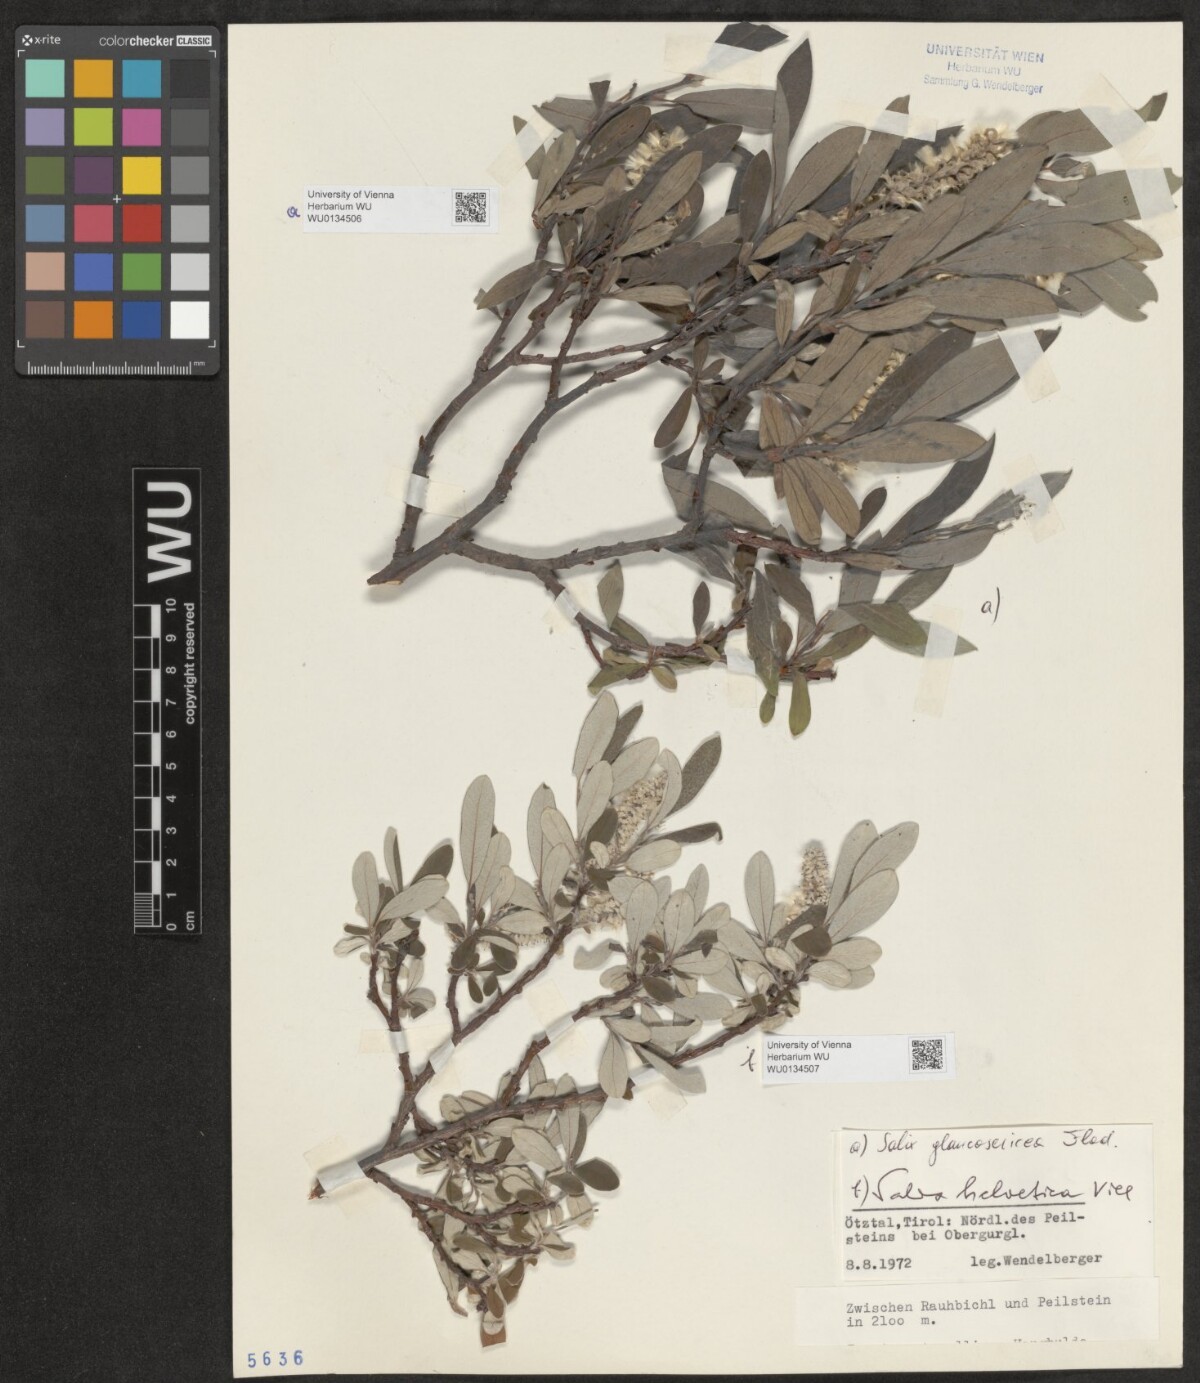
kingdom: Plantae
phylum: Tracheophyta
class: Magnoliopsida
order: Malpighiales
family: Salicaceae
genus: Salix
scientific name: Salix glaucosericea
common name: Alpine gray willow
